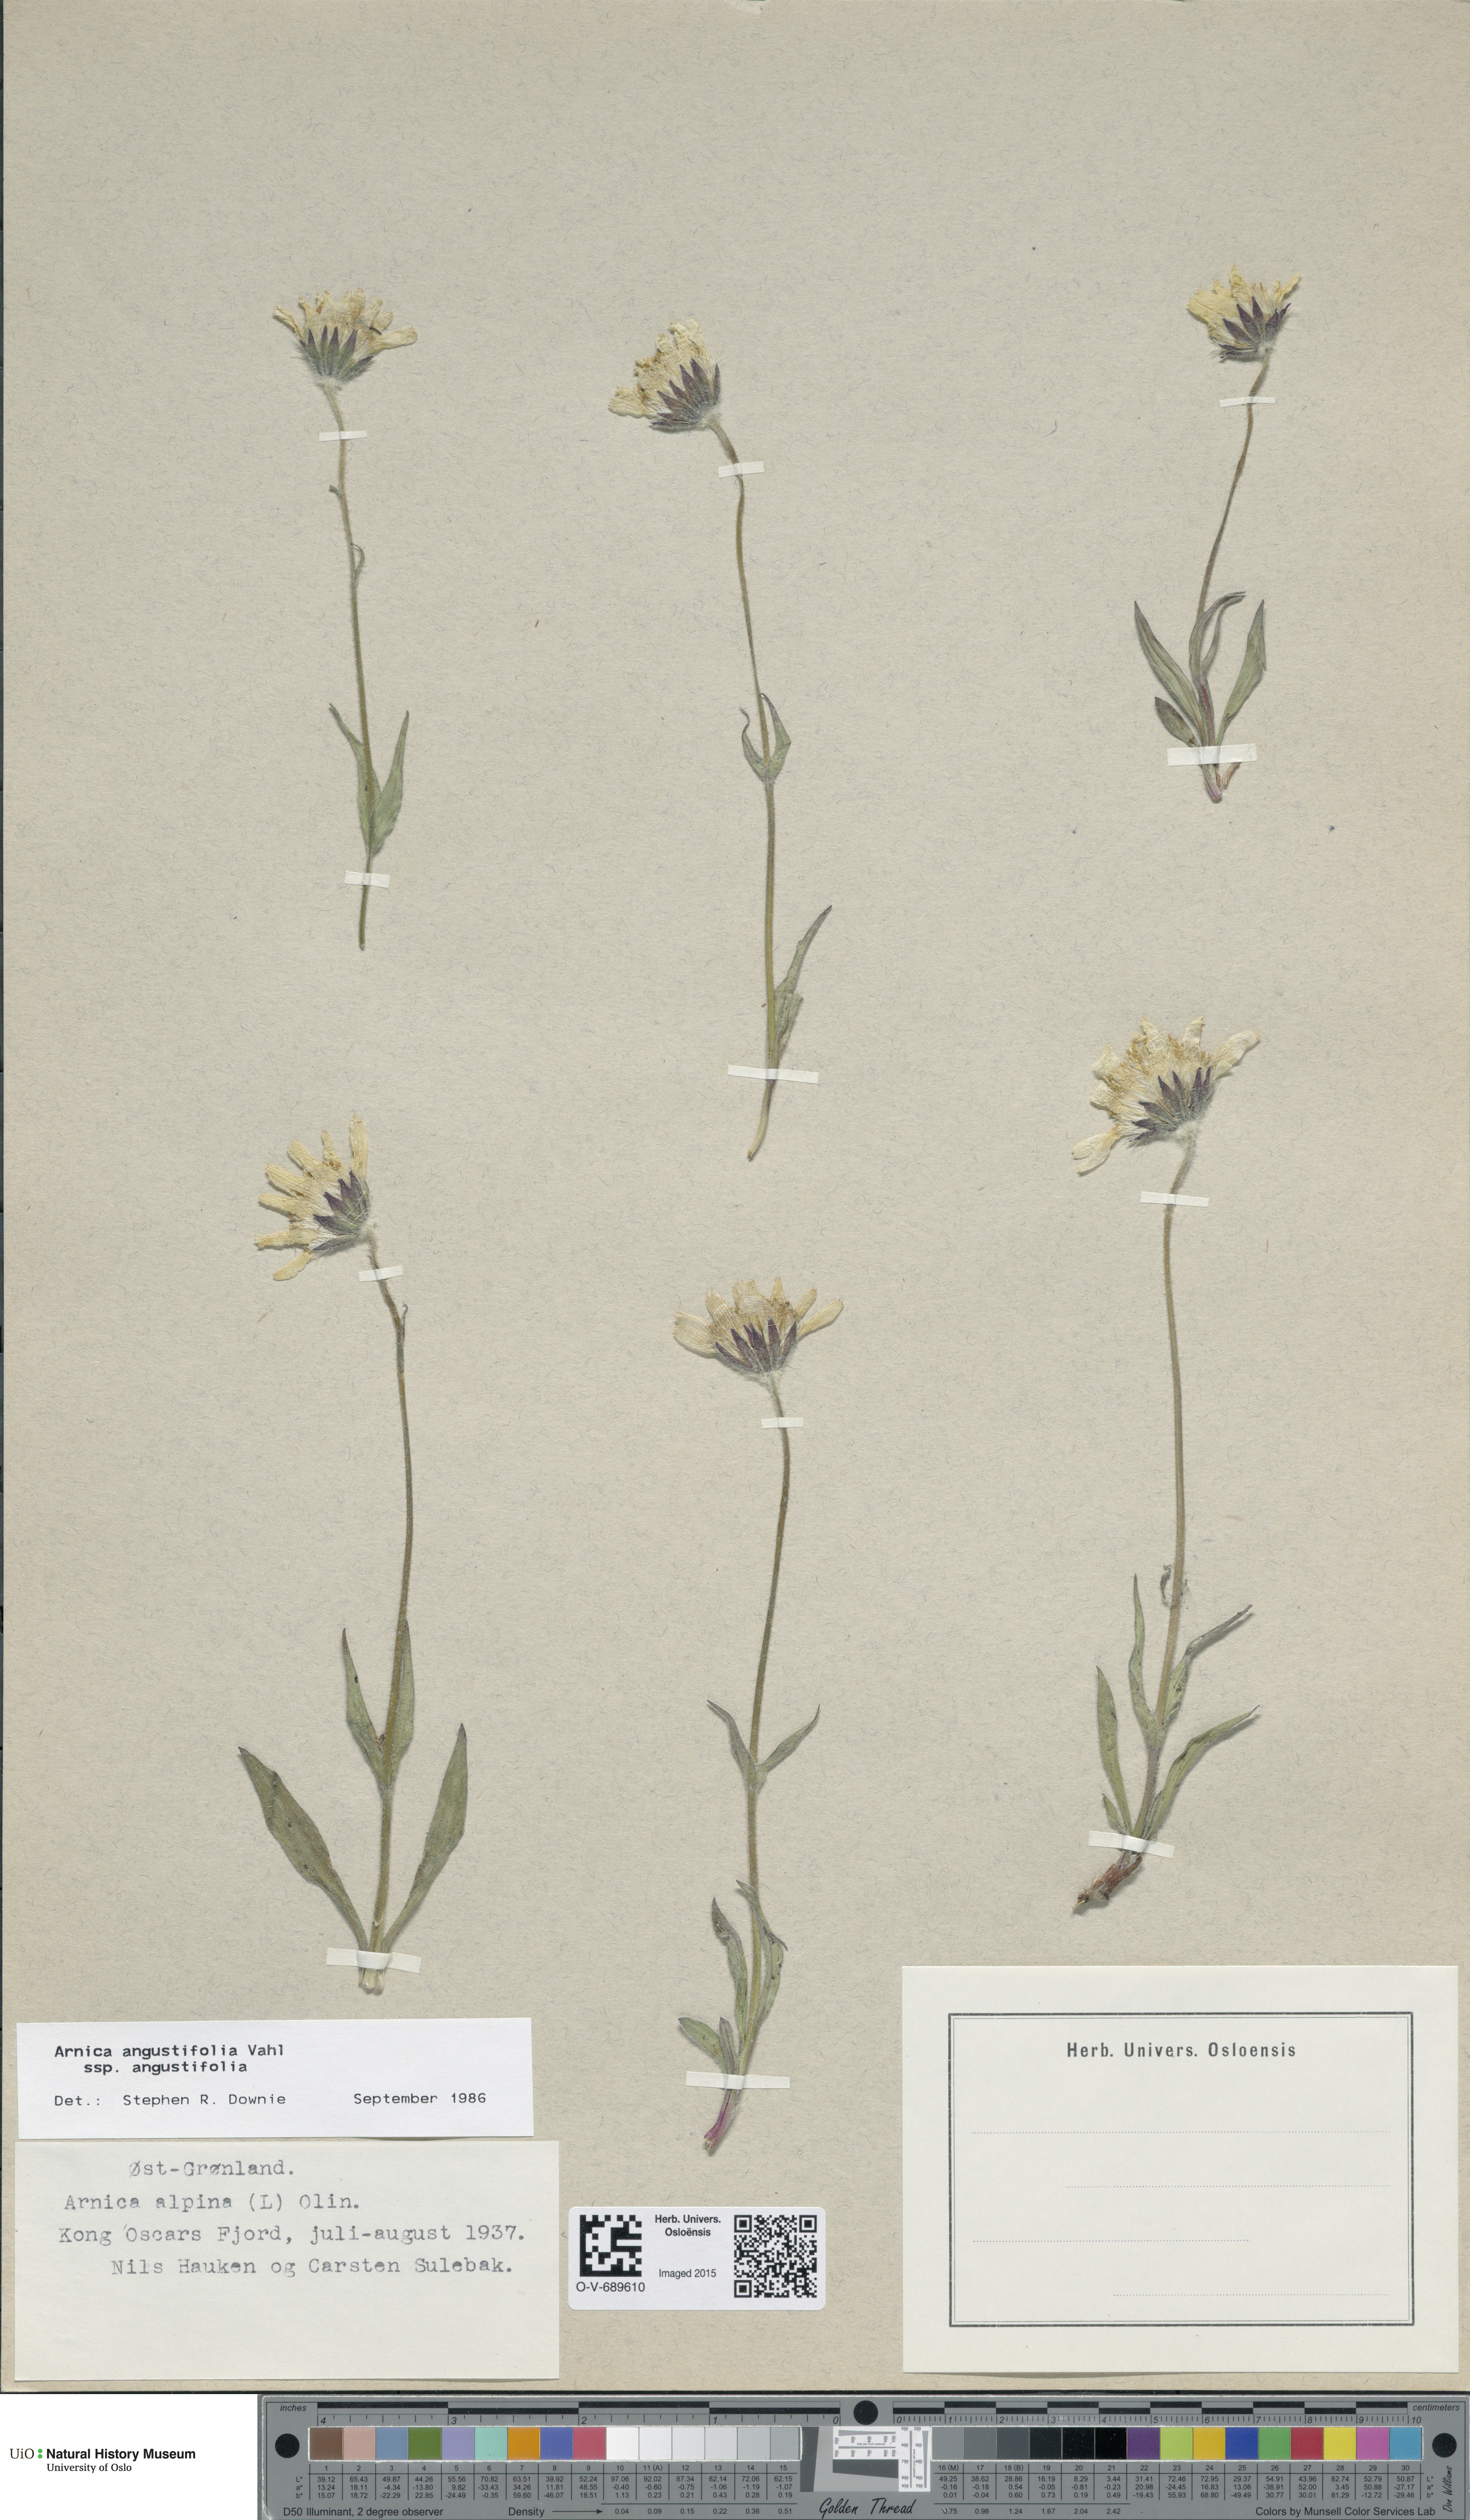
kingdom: Plantae
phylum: Tracheophyta
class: Magnoliopsida
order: Asterales
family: Asteraceae
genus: Arnica
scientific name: Arnica angustifolia
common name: Arctic arnica
